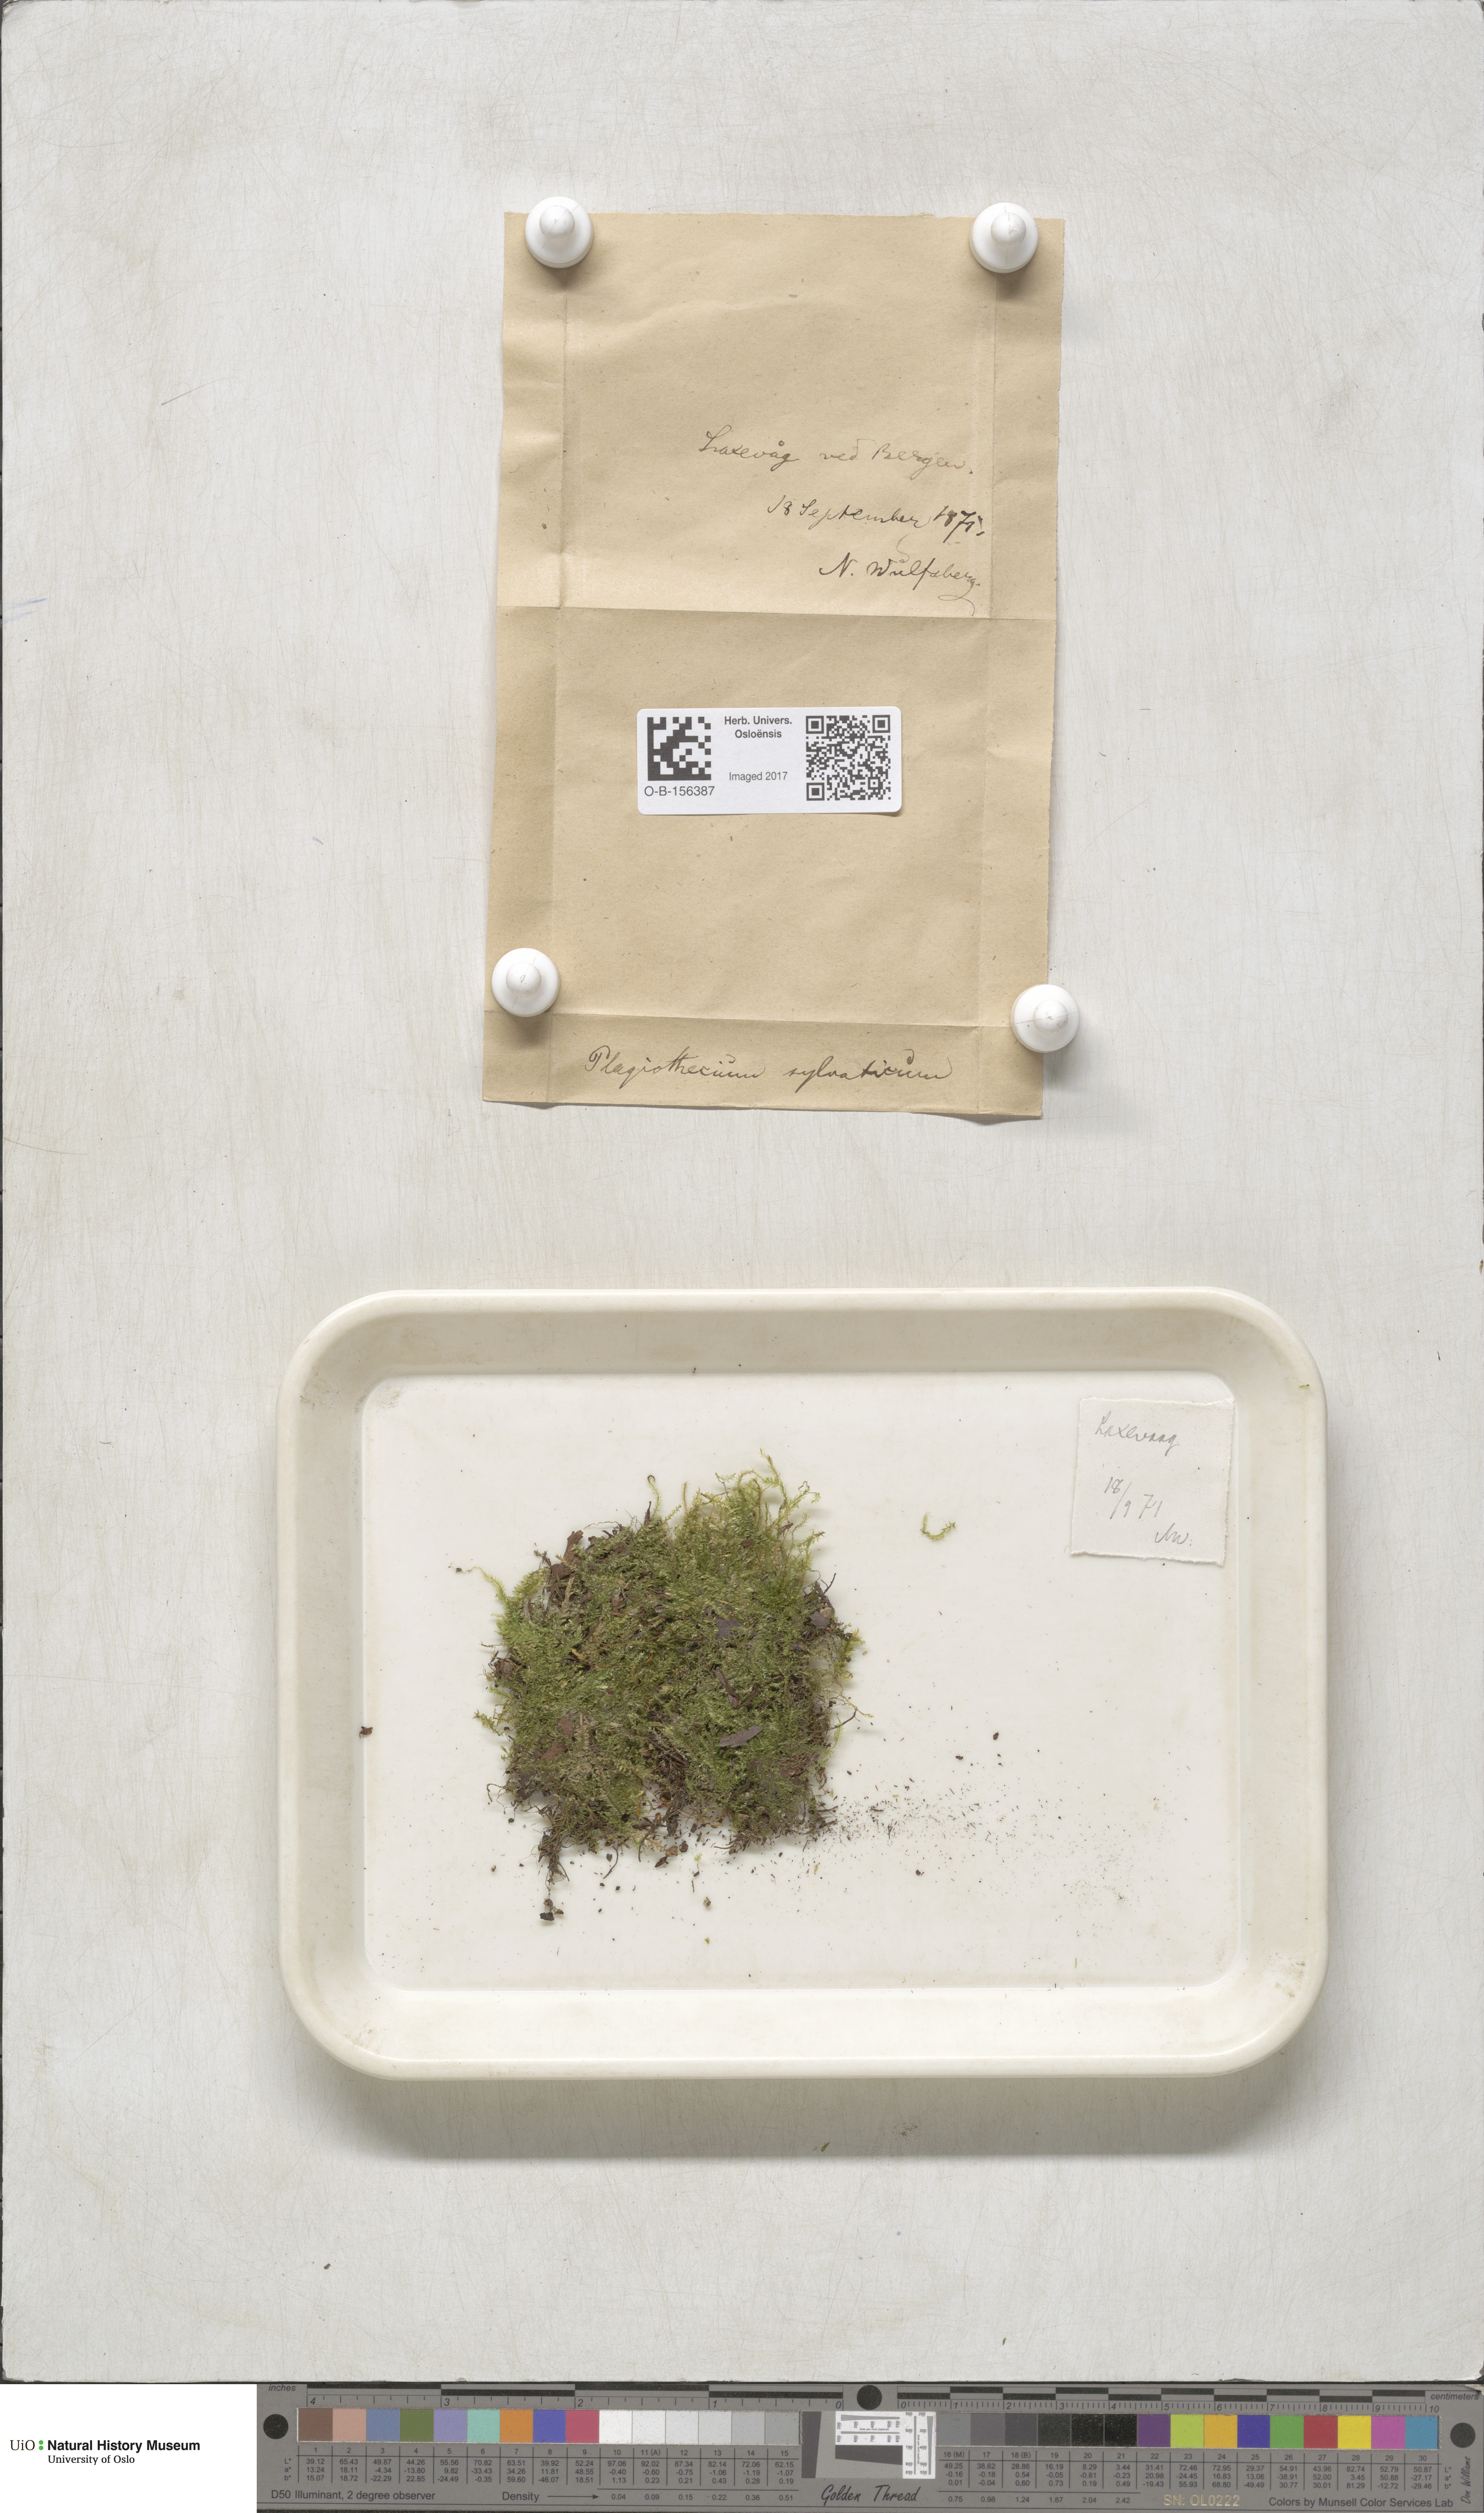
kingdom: Plantae
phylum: Bryophyta
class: Bryopsida
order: Hypnales
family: Plagiotheciaceae
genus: Plagiothecium
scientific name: Plagiothecium nemorale
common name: Woodsy silk-moss
